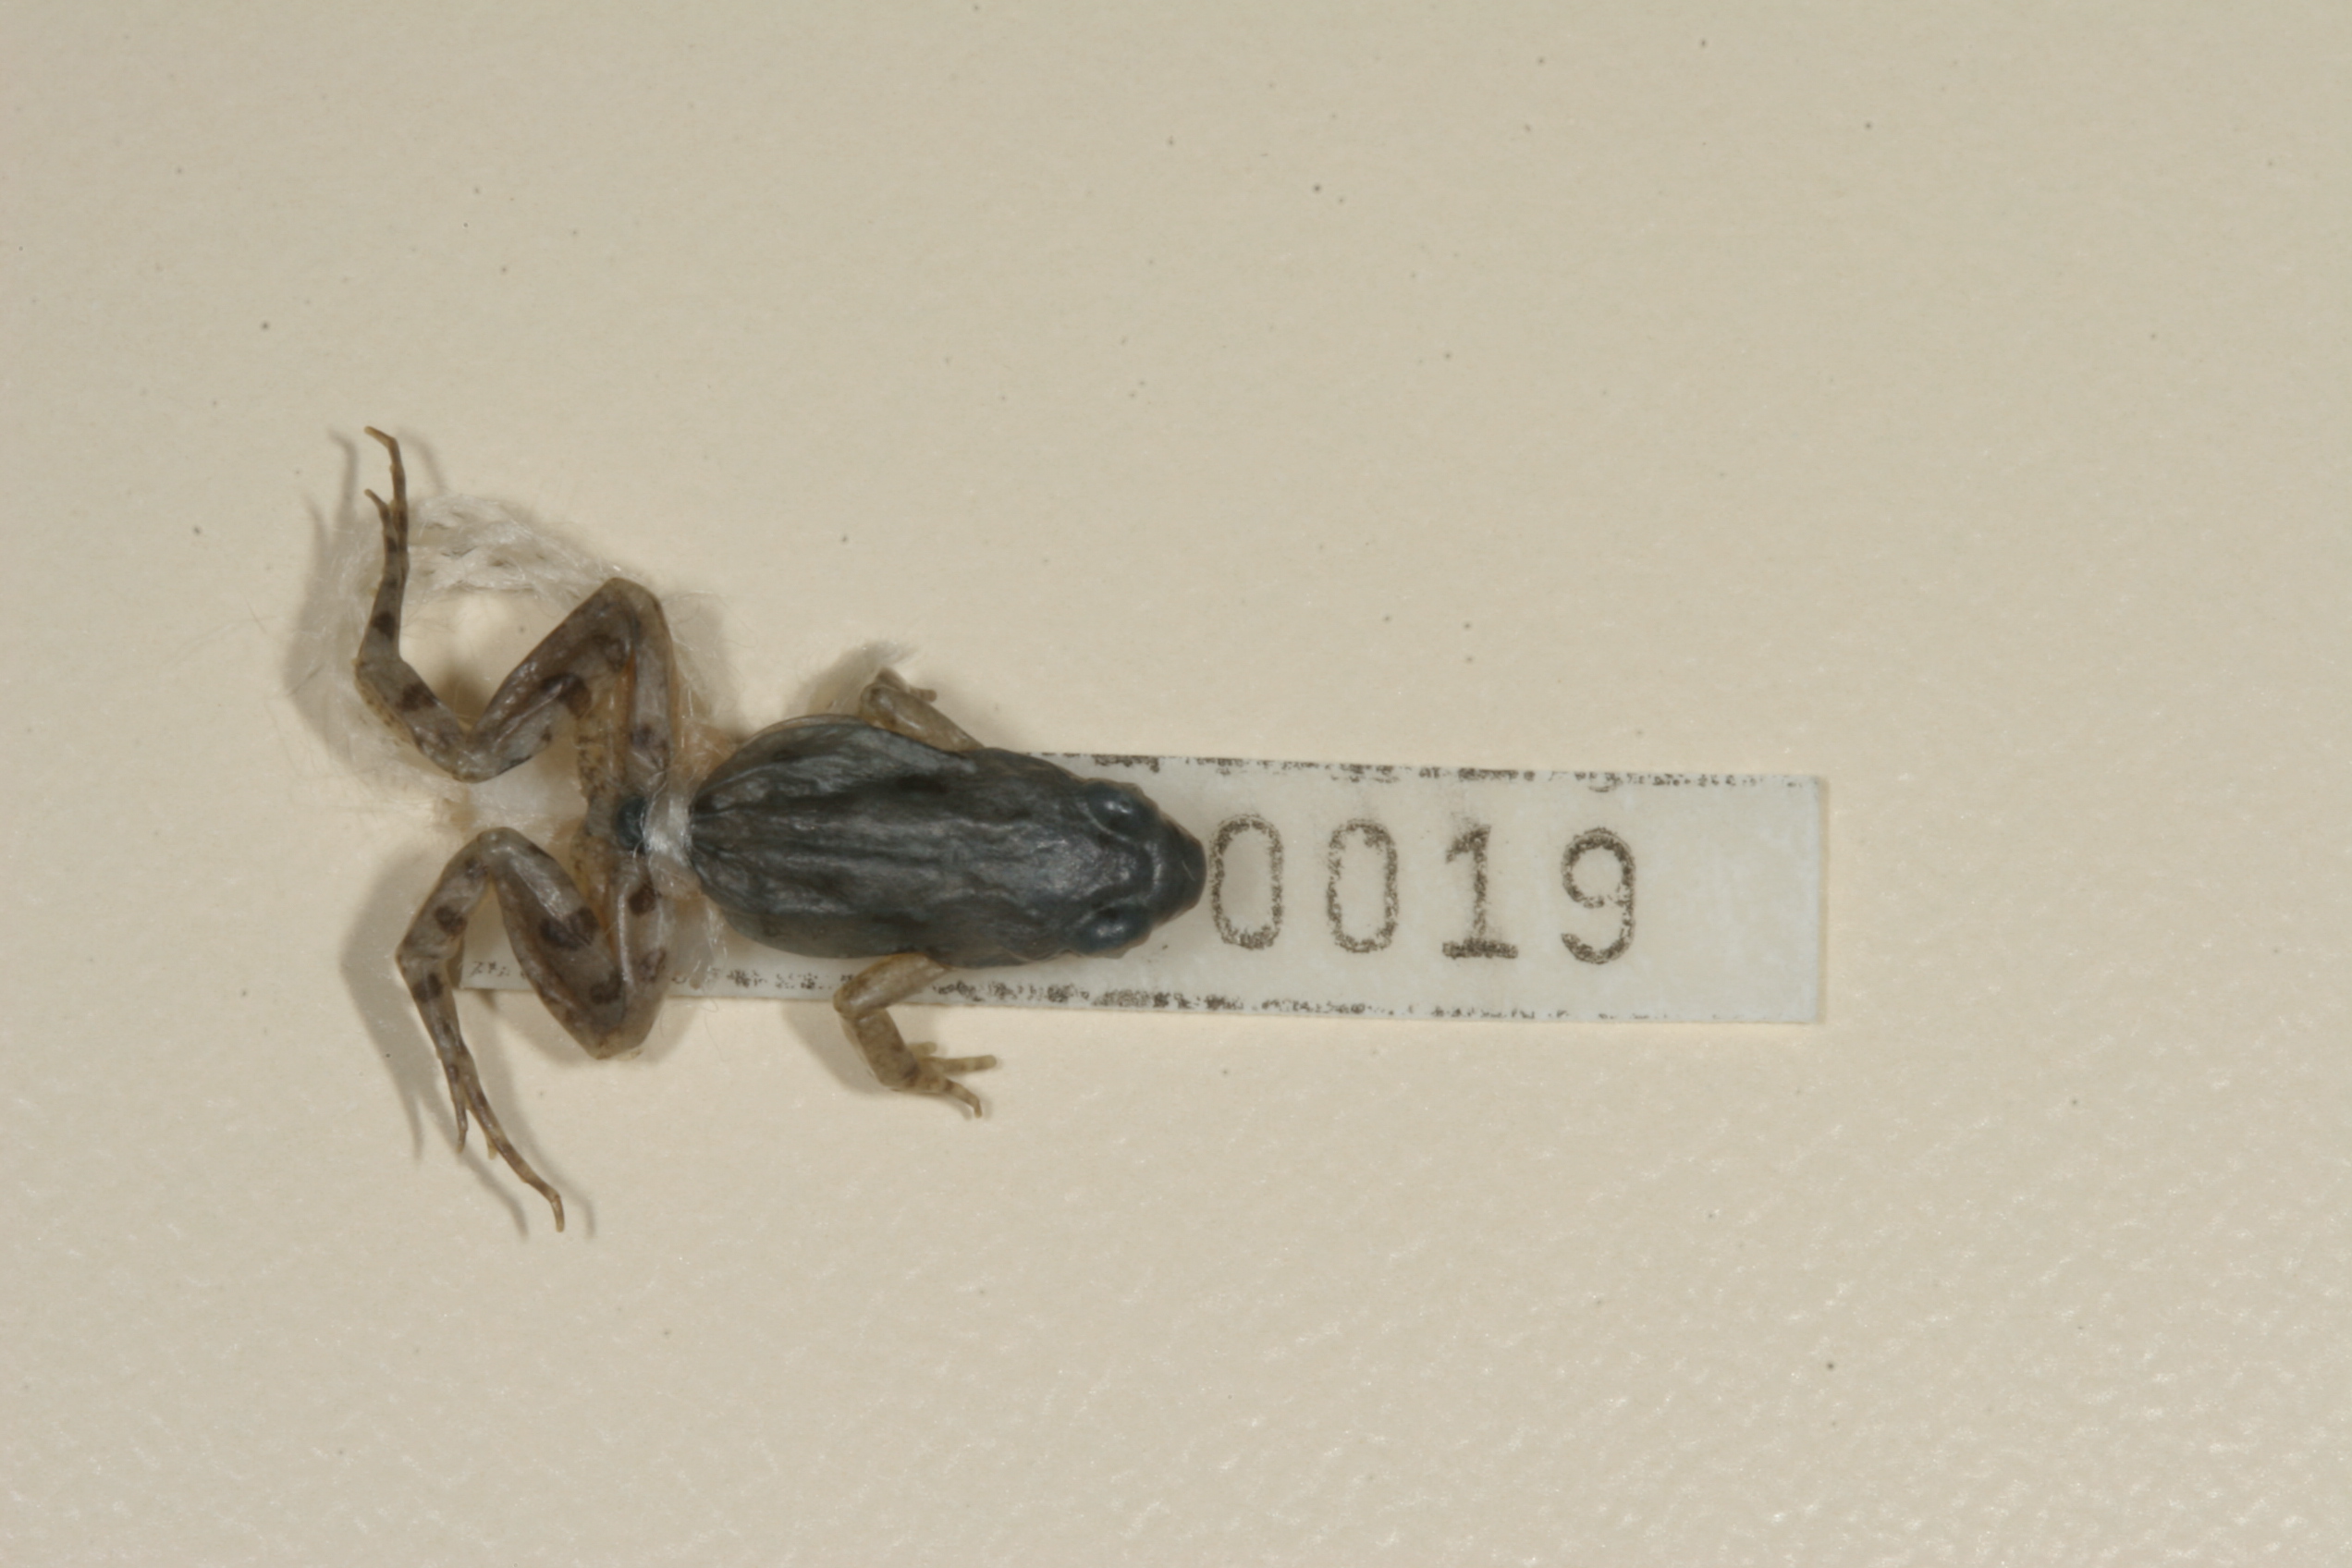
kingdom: Animalia
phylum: Chordata
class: Amphibia
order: Anura
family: Pyxicephalidae
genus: Cacosternum
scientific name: Cacosternum boettgeri
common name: Boettger's frog
